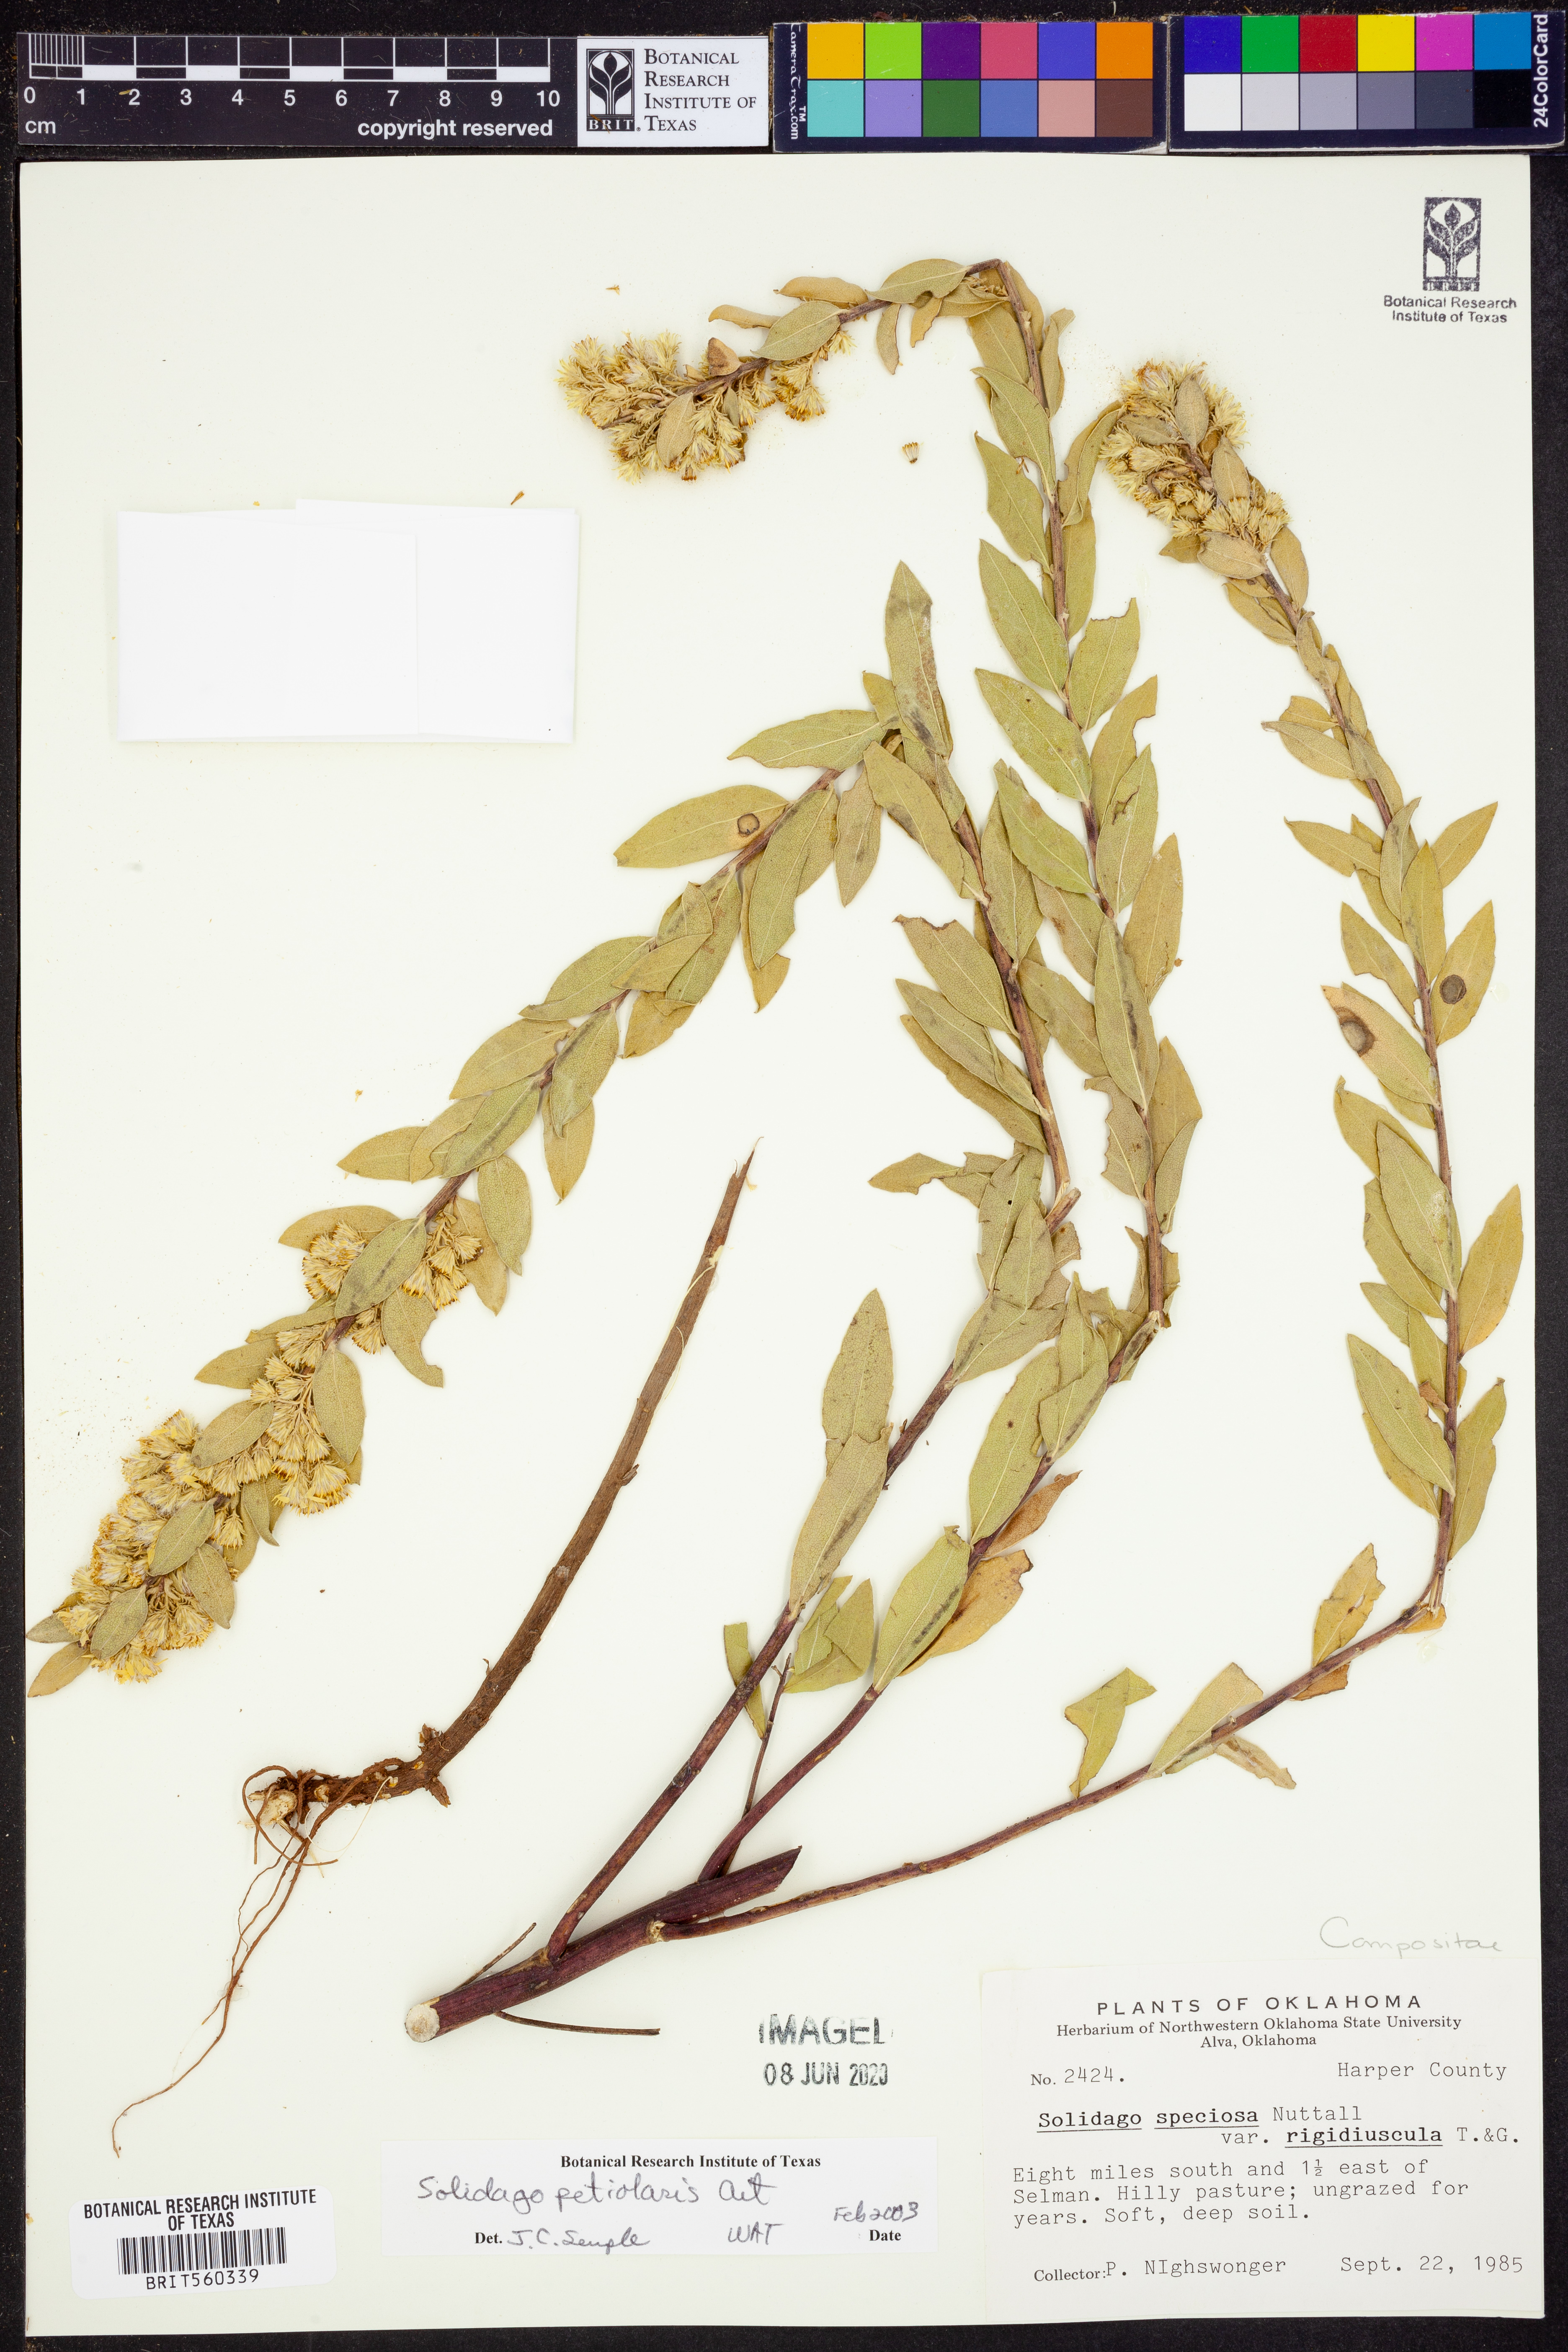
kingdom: Plantae
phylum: Tracheophyta
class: Magnoliopsida
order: Asterales
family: Asteraceae
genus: Solidago
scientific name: Solidago petiolaris
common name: Downy ragged goldenrod
